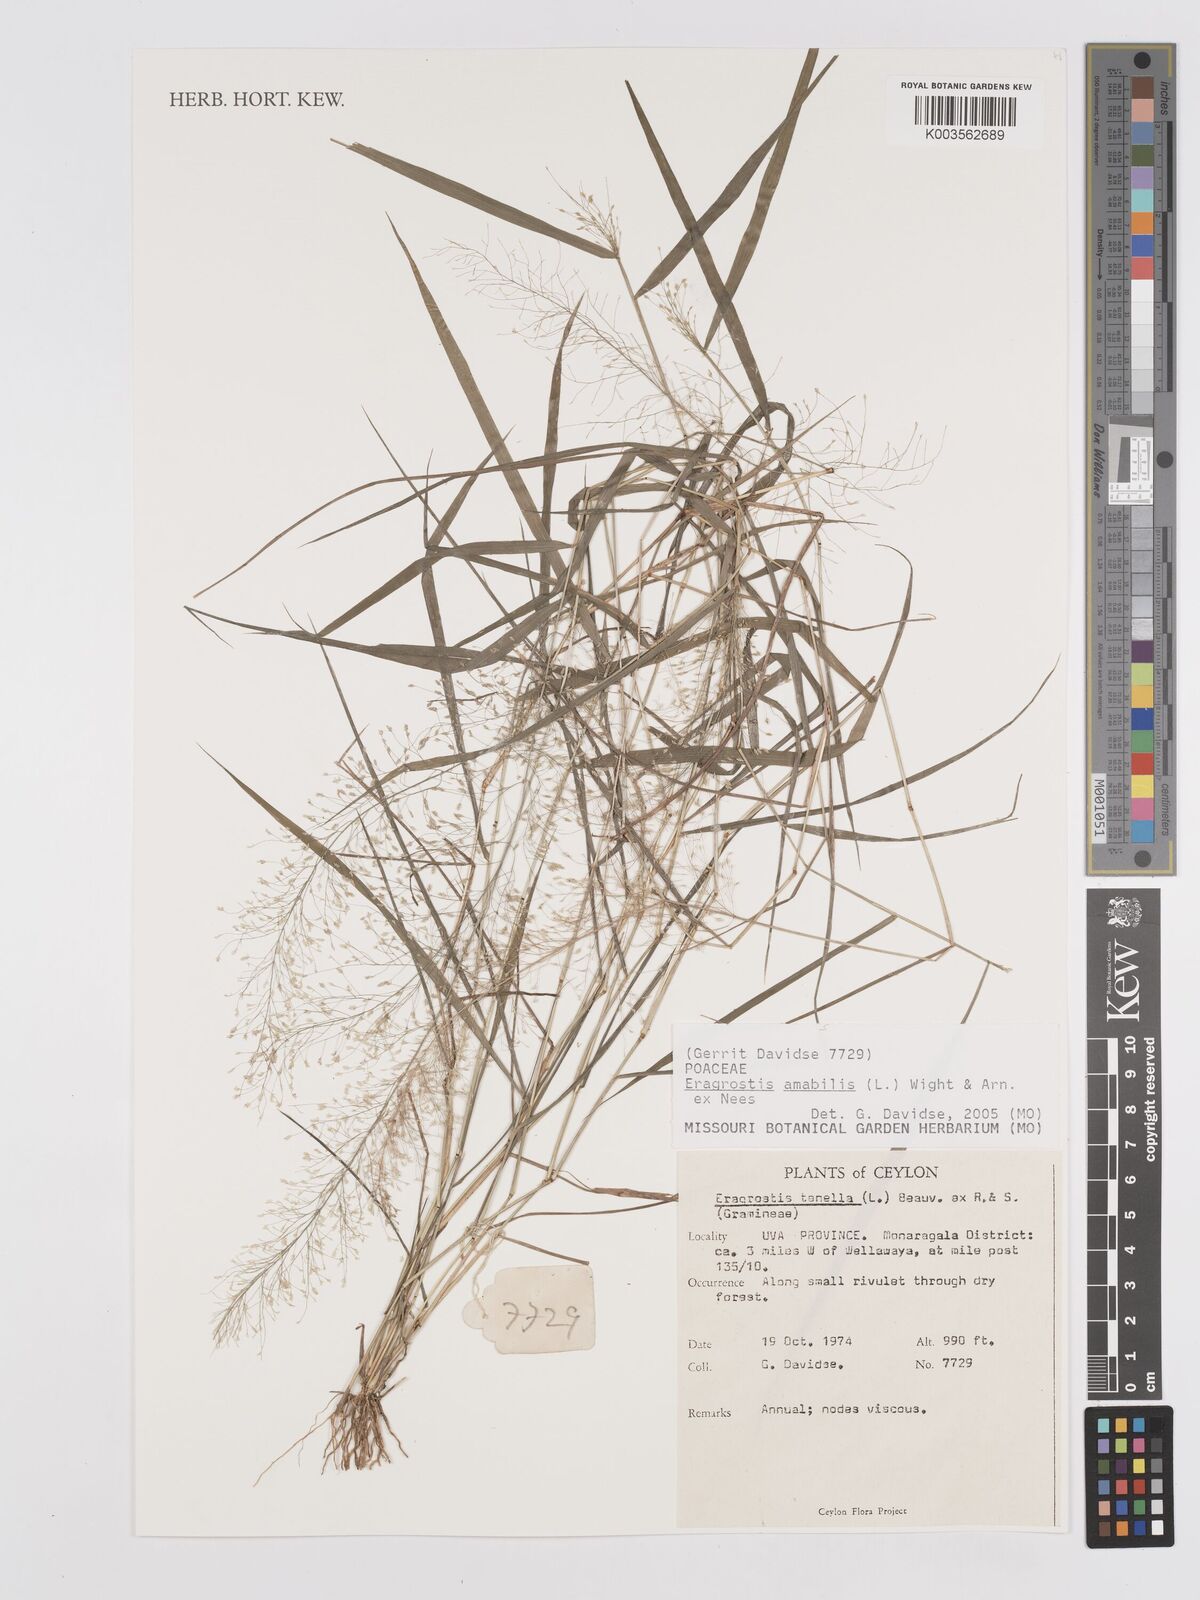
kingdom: Plantae
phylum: Tracheophyta
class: Liliopsida
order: Poales
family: Poaceae
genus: Eragrostis
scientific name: Eragrostis tenella
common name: Japanese lovegrass
